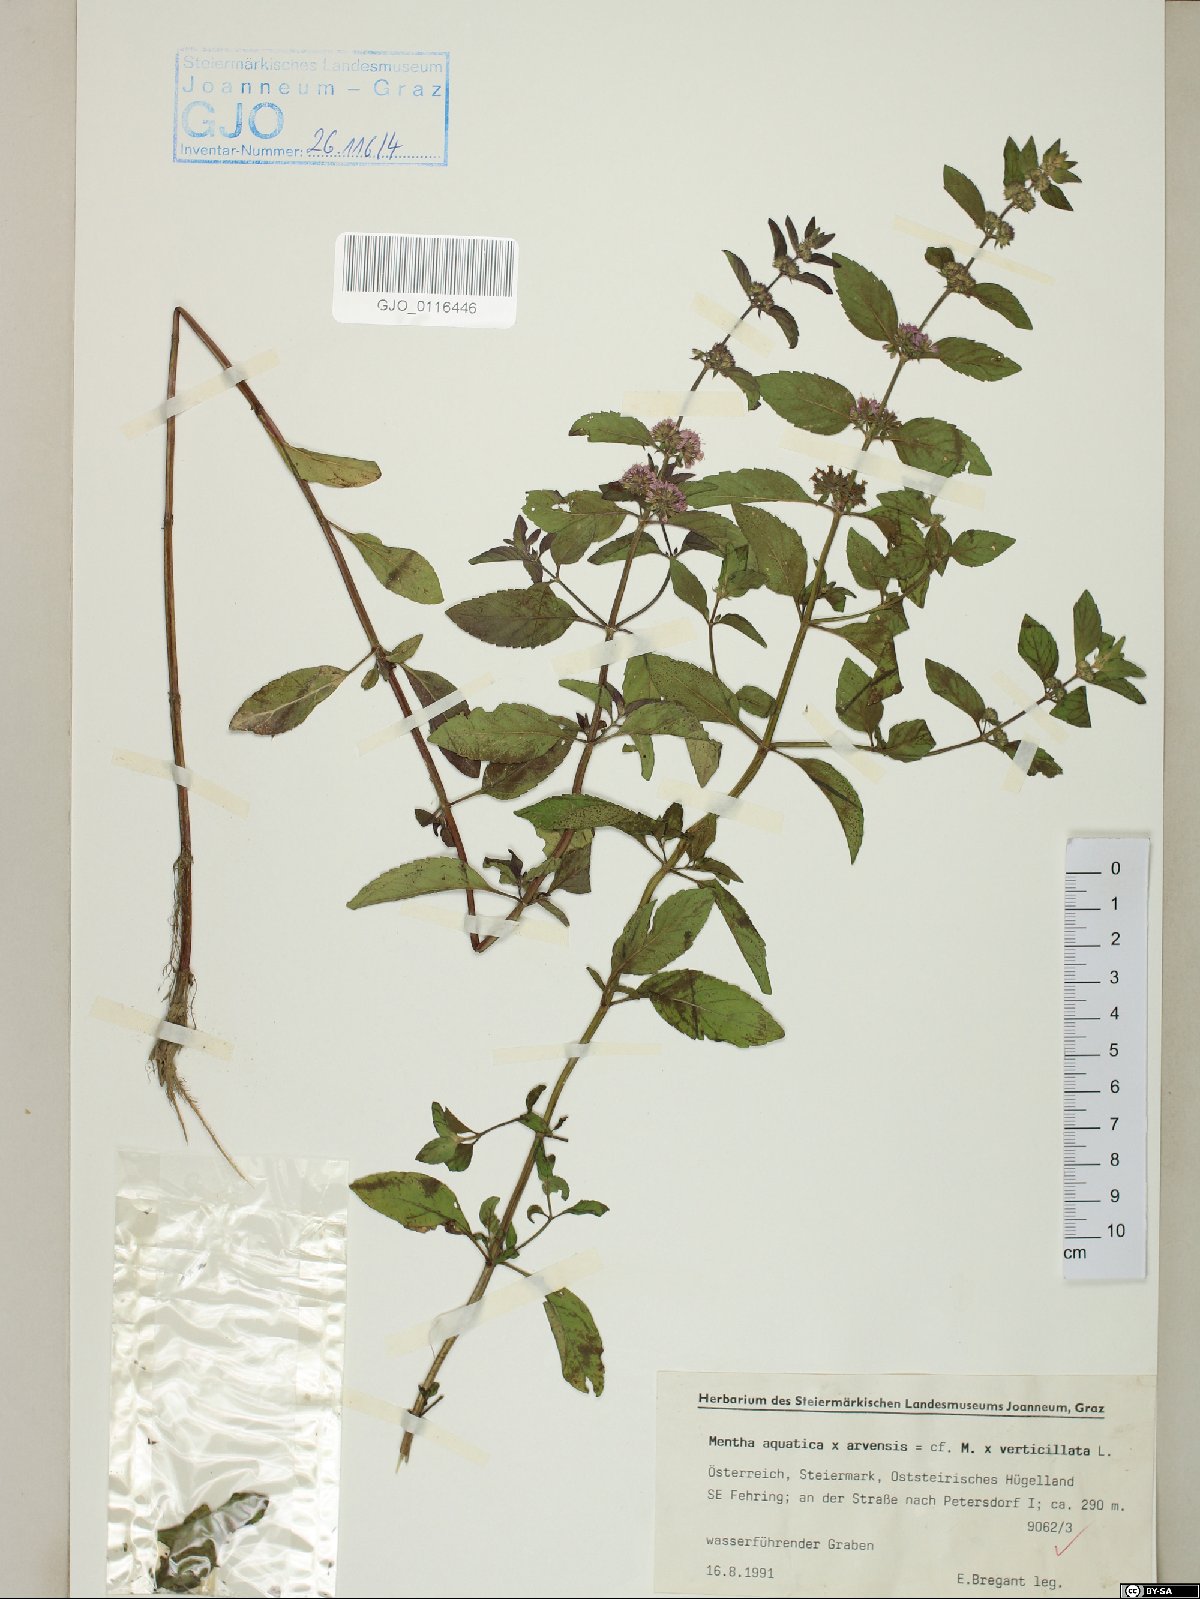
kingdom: Plantae
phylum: Tracheophyta
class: Magnoliopsida
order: Lamiales
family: Lamiaceae
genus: Mentha
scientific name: Mentha verticillata
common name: Mint
